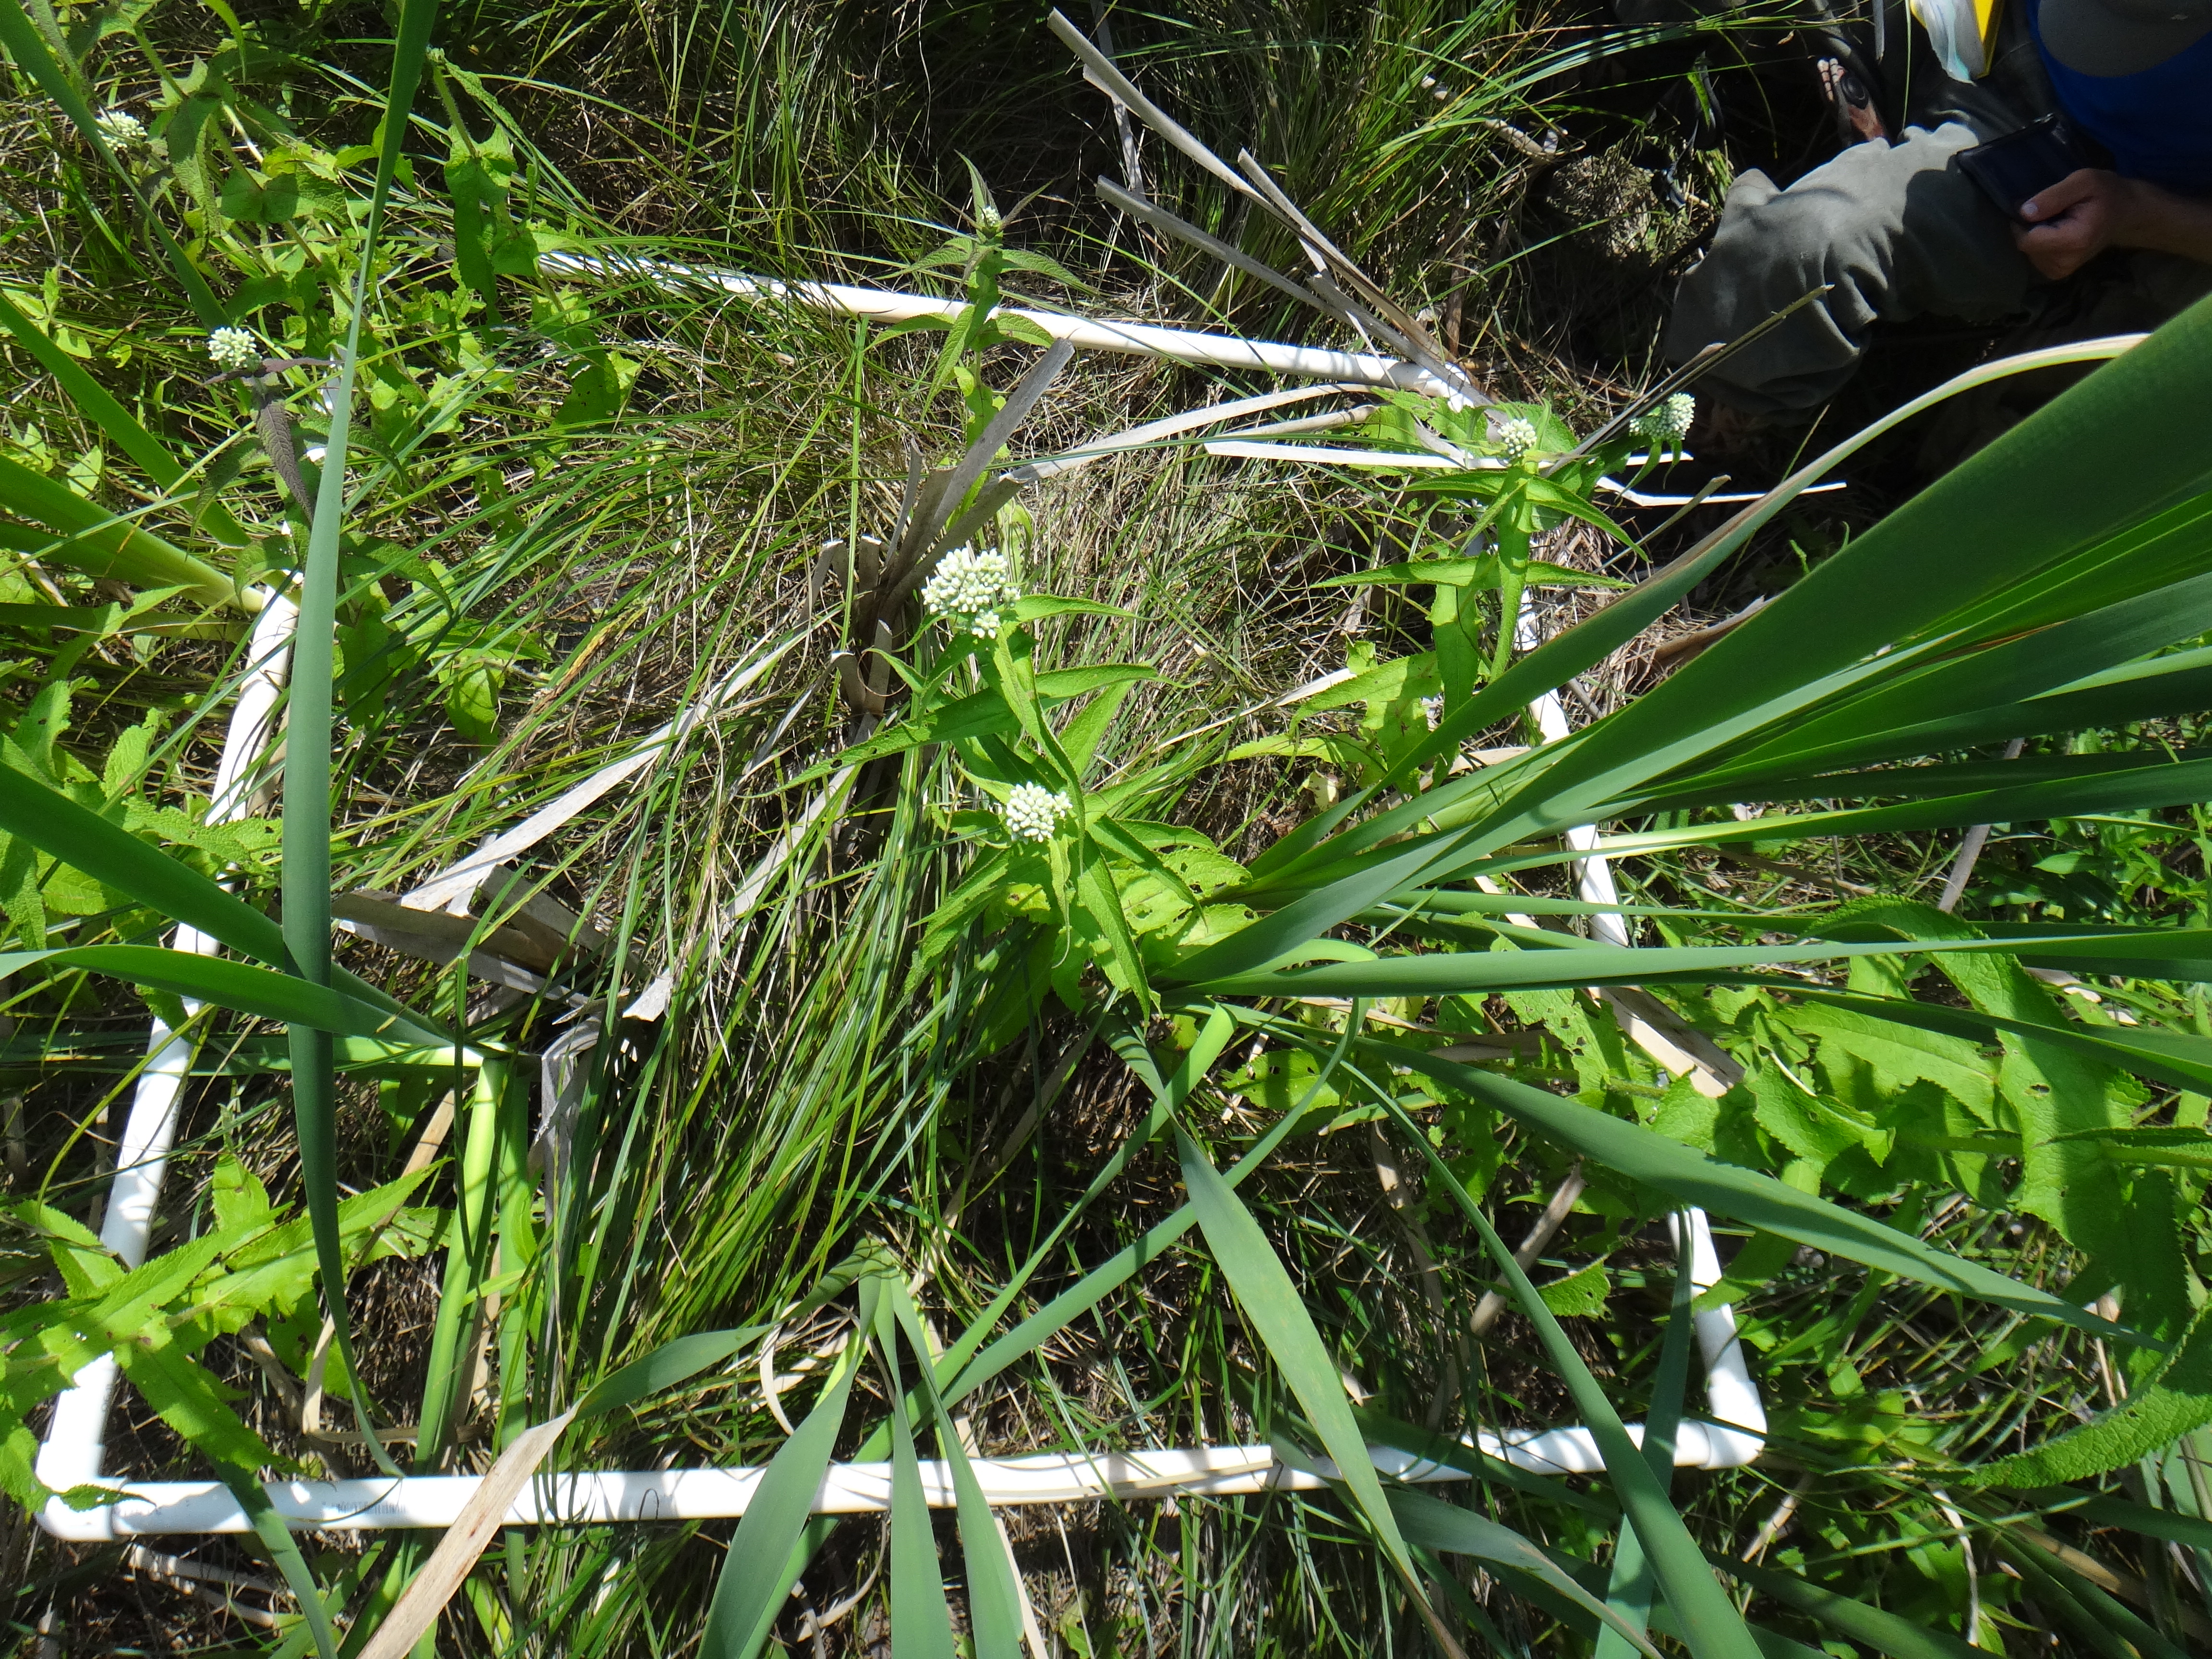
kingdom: Plantae
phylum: Tracheophyta
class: Magnoliopsida
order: Asterales
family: Asteraceae
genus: Eupatorium
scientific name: Eupatorium perfoliatum
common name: Boneset
